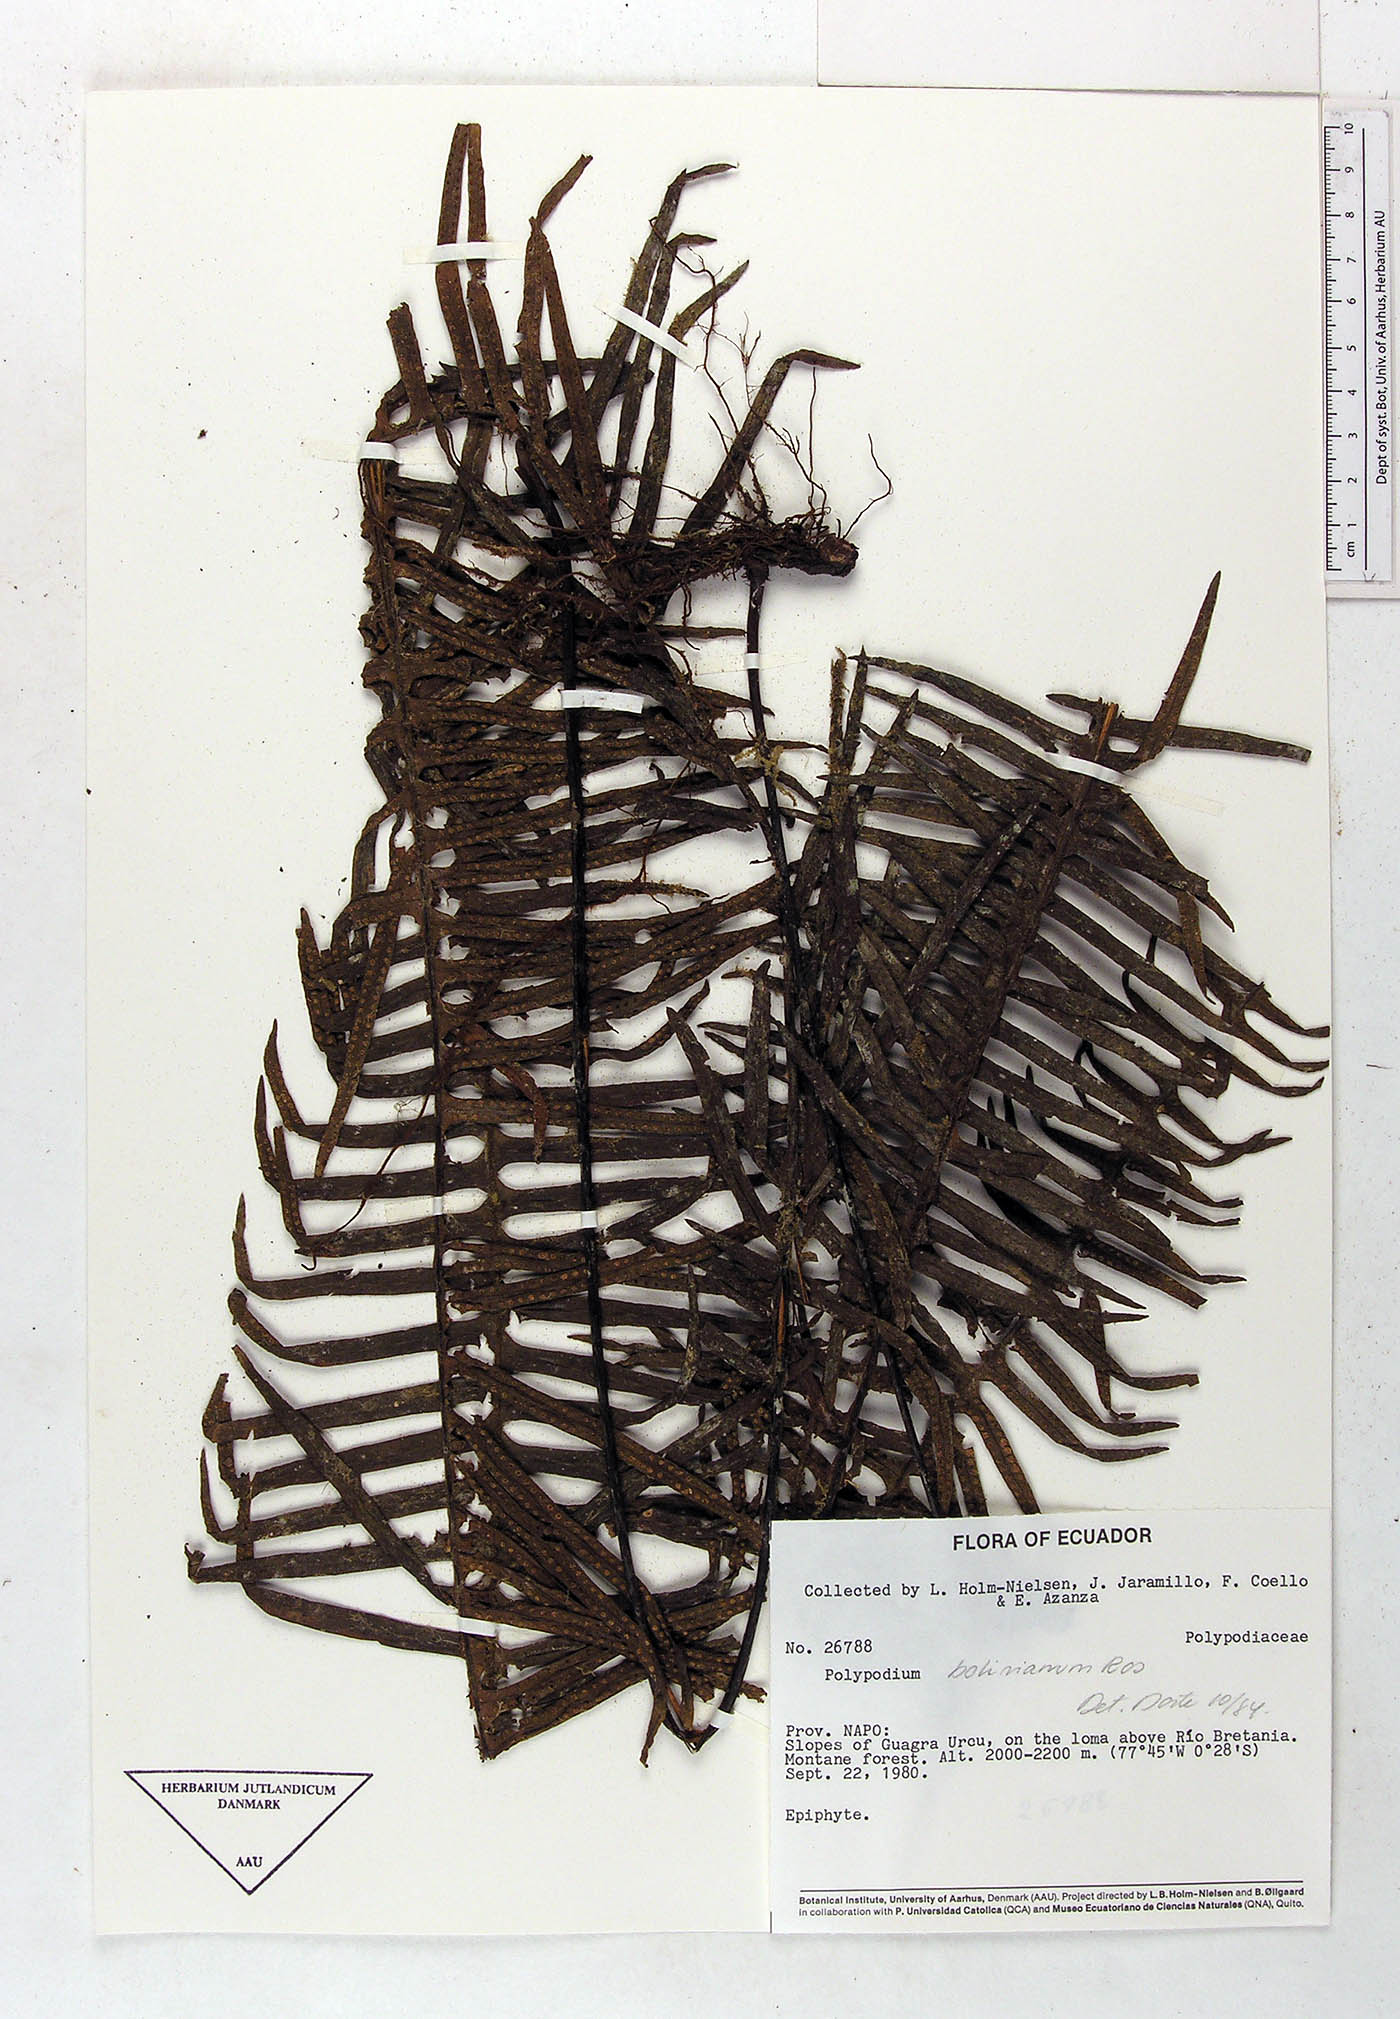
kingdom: Plantae
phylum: Tracheophyta
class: Polypodiopsida
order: Polypodiales
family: Polypodiaceae
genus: Pecluma
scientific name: Pecluma divaricata
